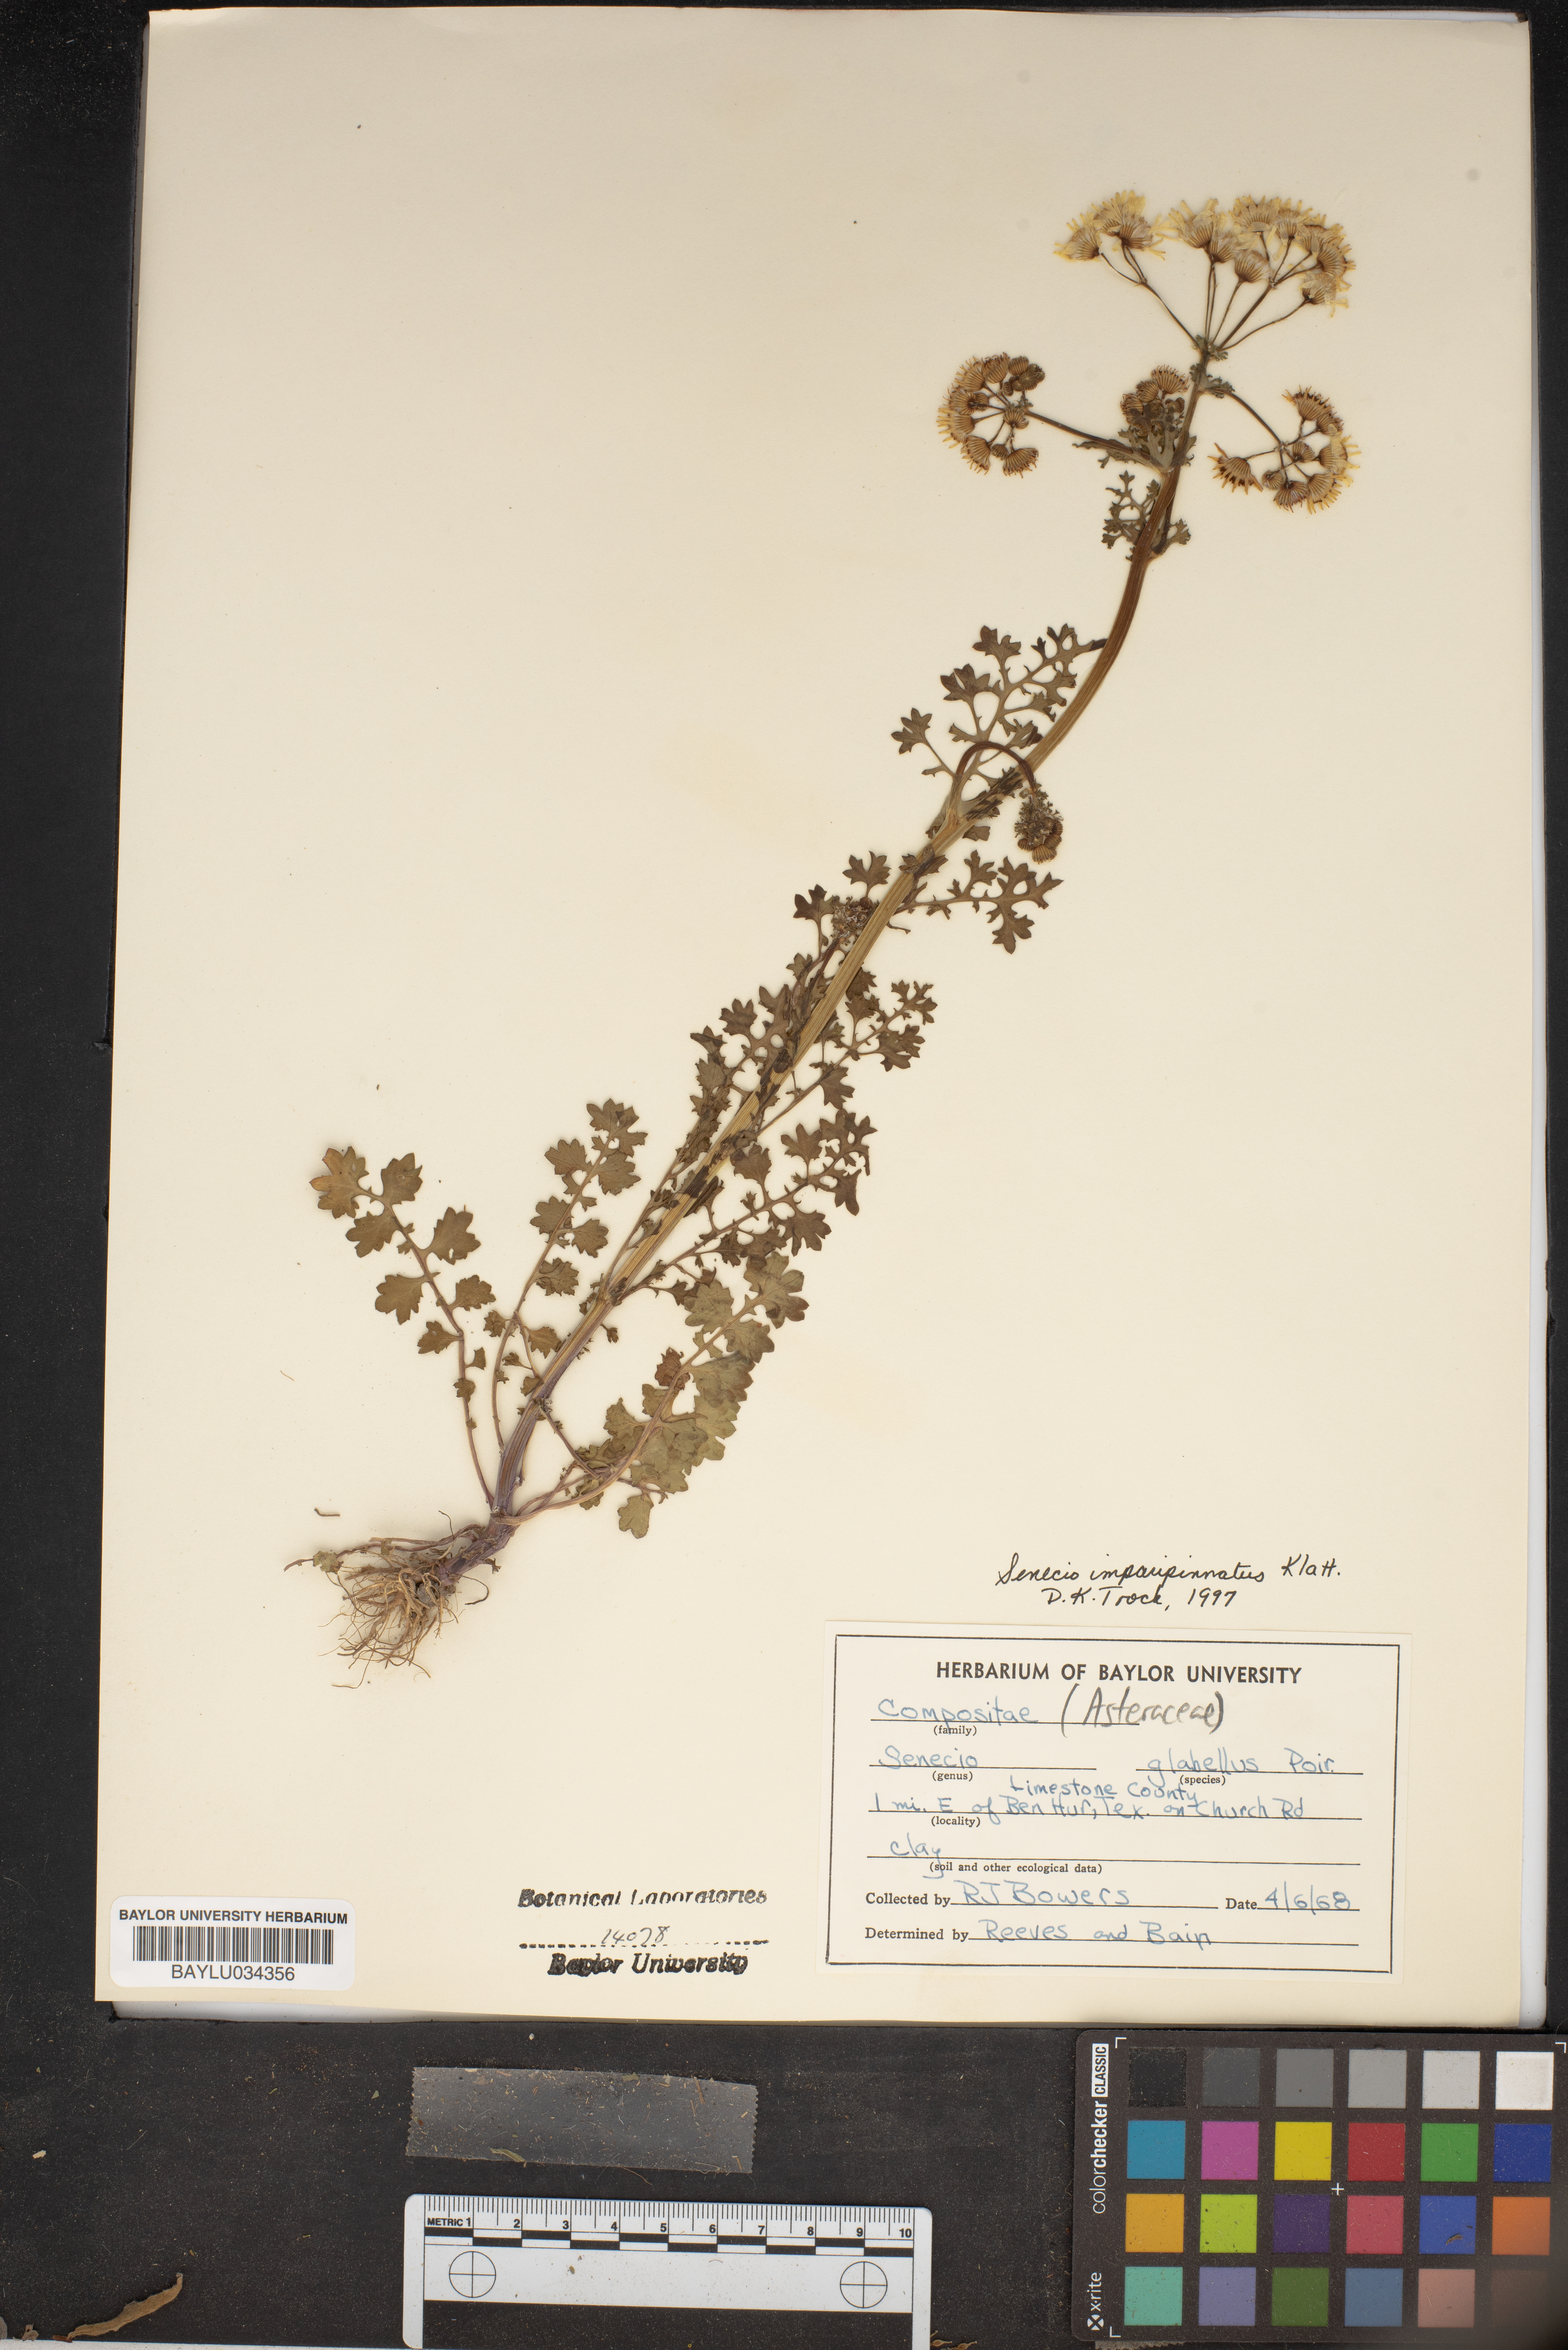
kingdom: Plantae
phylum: Tracheophyta
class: Magnoliopsida
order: Asterales
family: Asteraceae
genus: Tephroseris
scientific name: Tephroseris praticola
